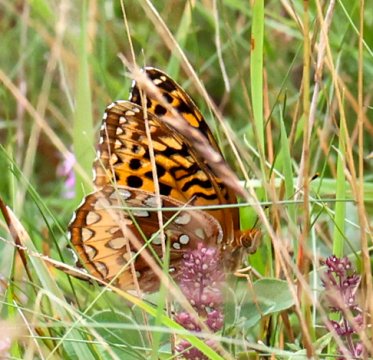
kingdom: Animalia
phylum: Arthropoda
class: Insecta
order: Lepidoptera
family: Nymphalidae
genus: Speyeria
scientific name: Speyeria cybele
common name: Great Spangled Fritillary
